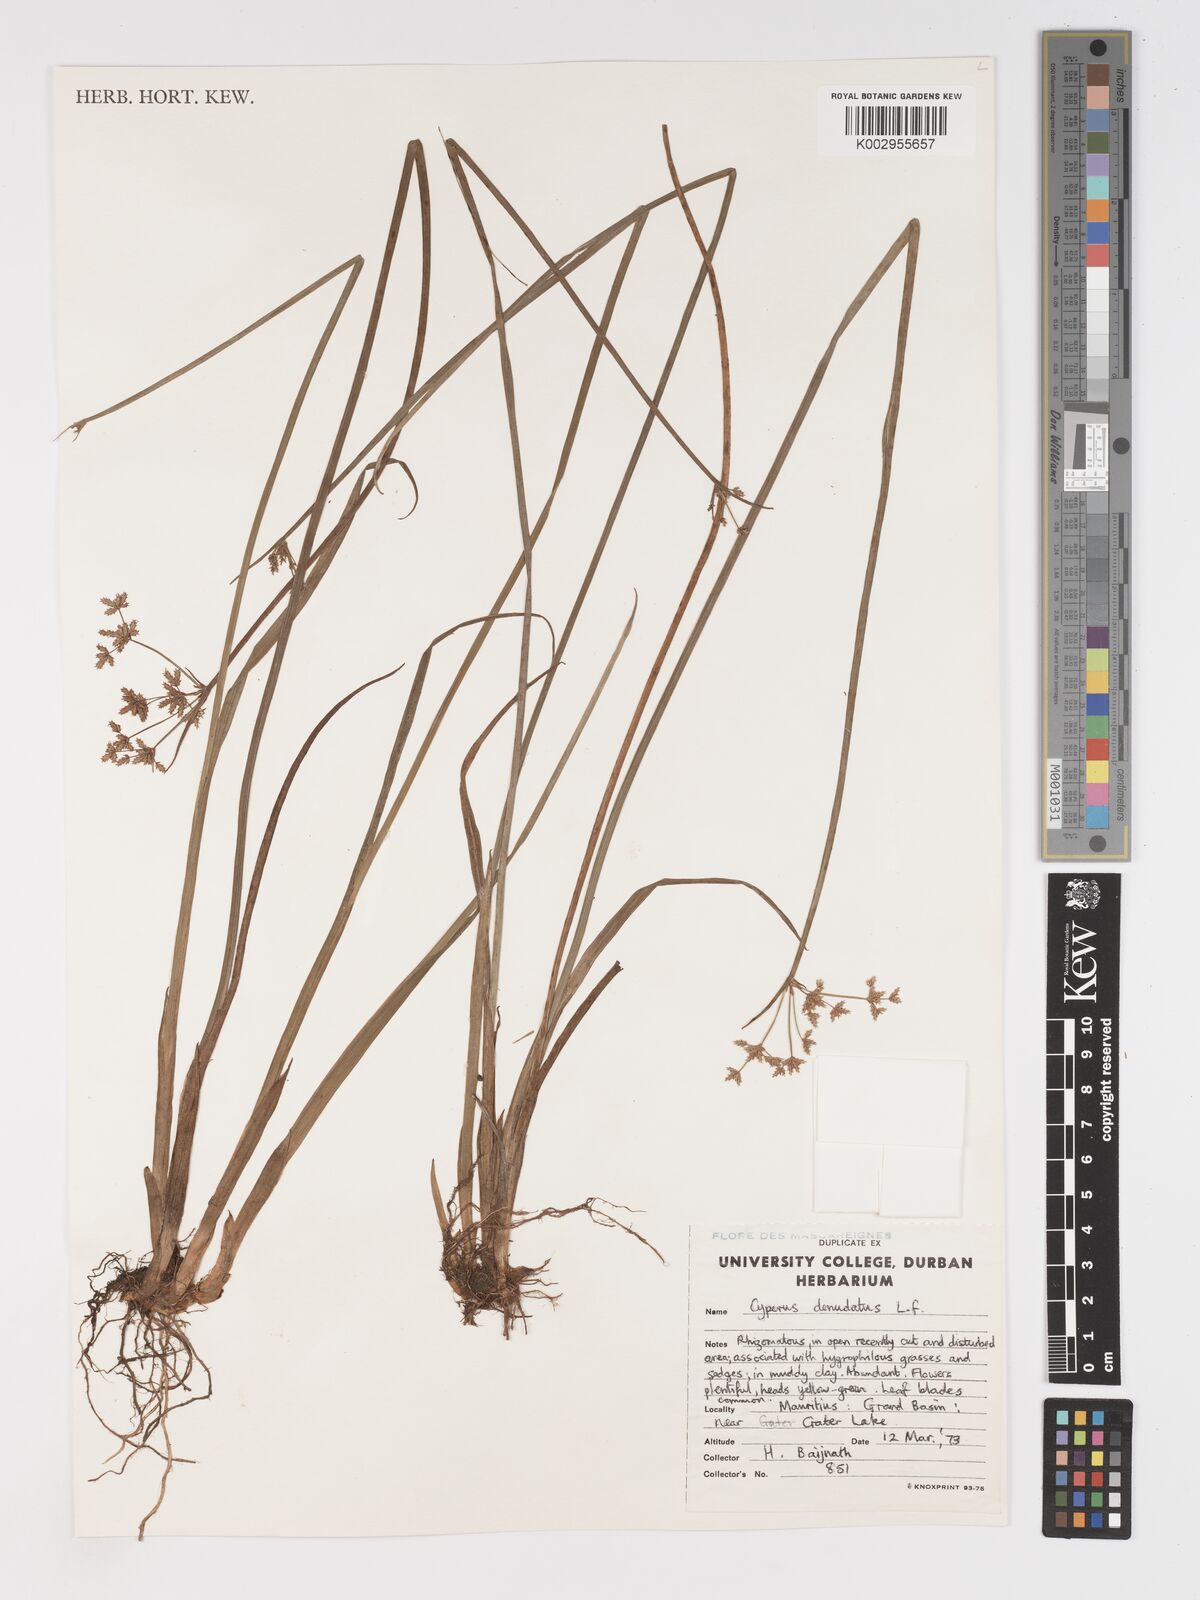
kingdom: Plantae
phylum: Tracheophyta
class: Liliopsida
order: Poales
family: Cyperaceae
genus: Cyperus
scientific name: Cyperus denudatus
